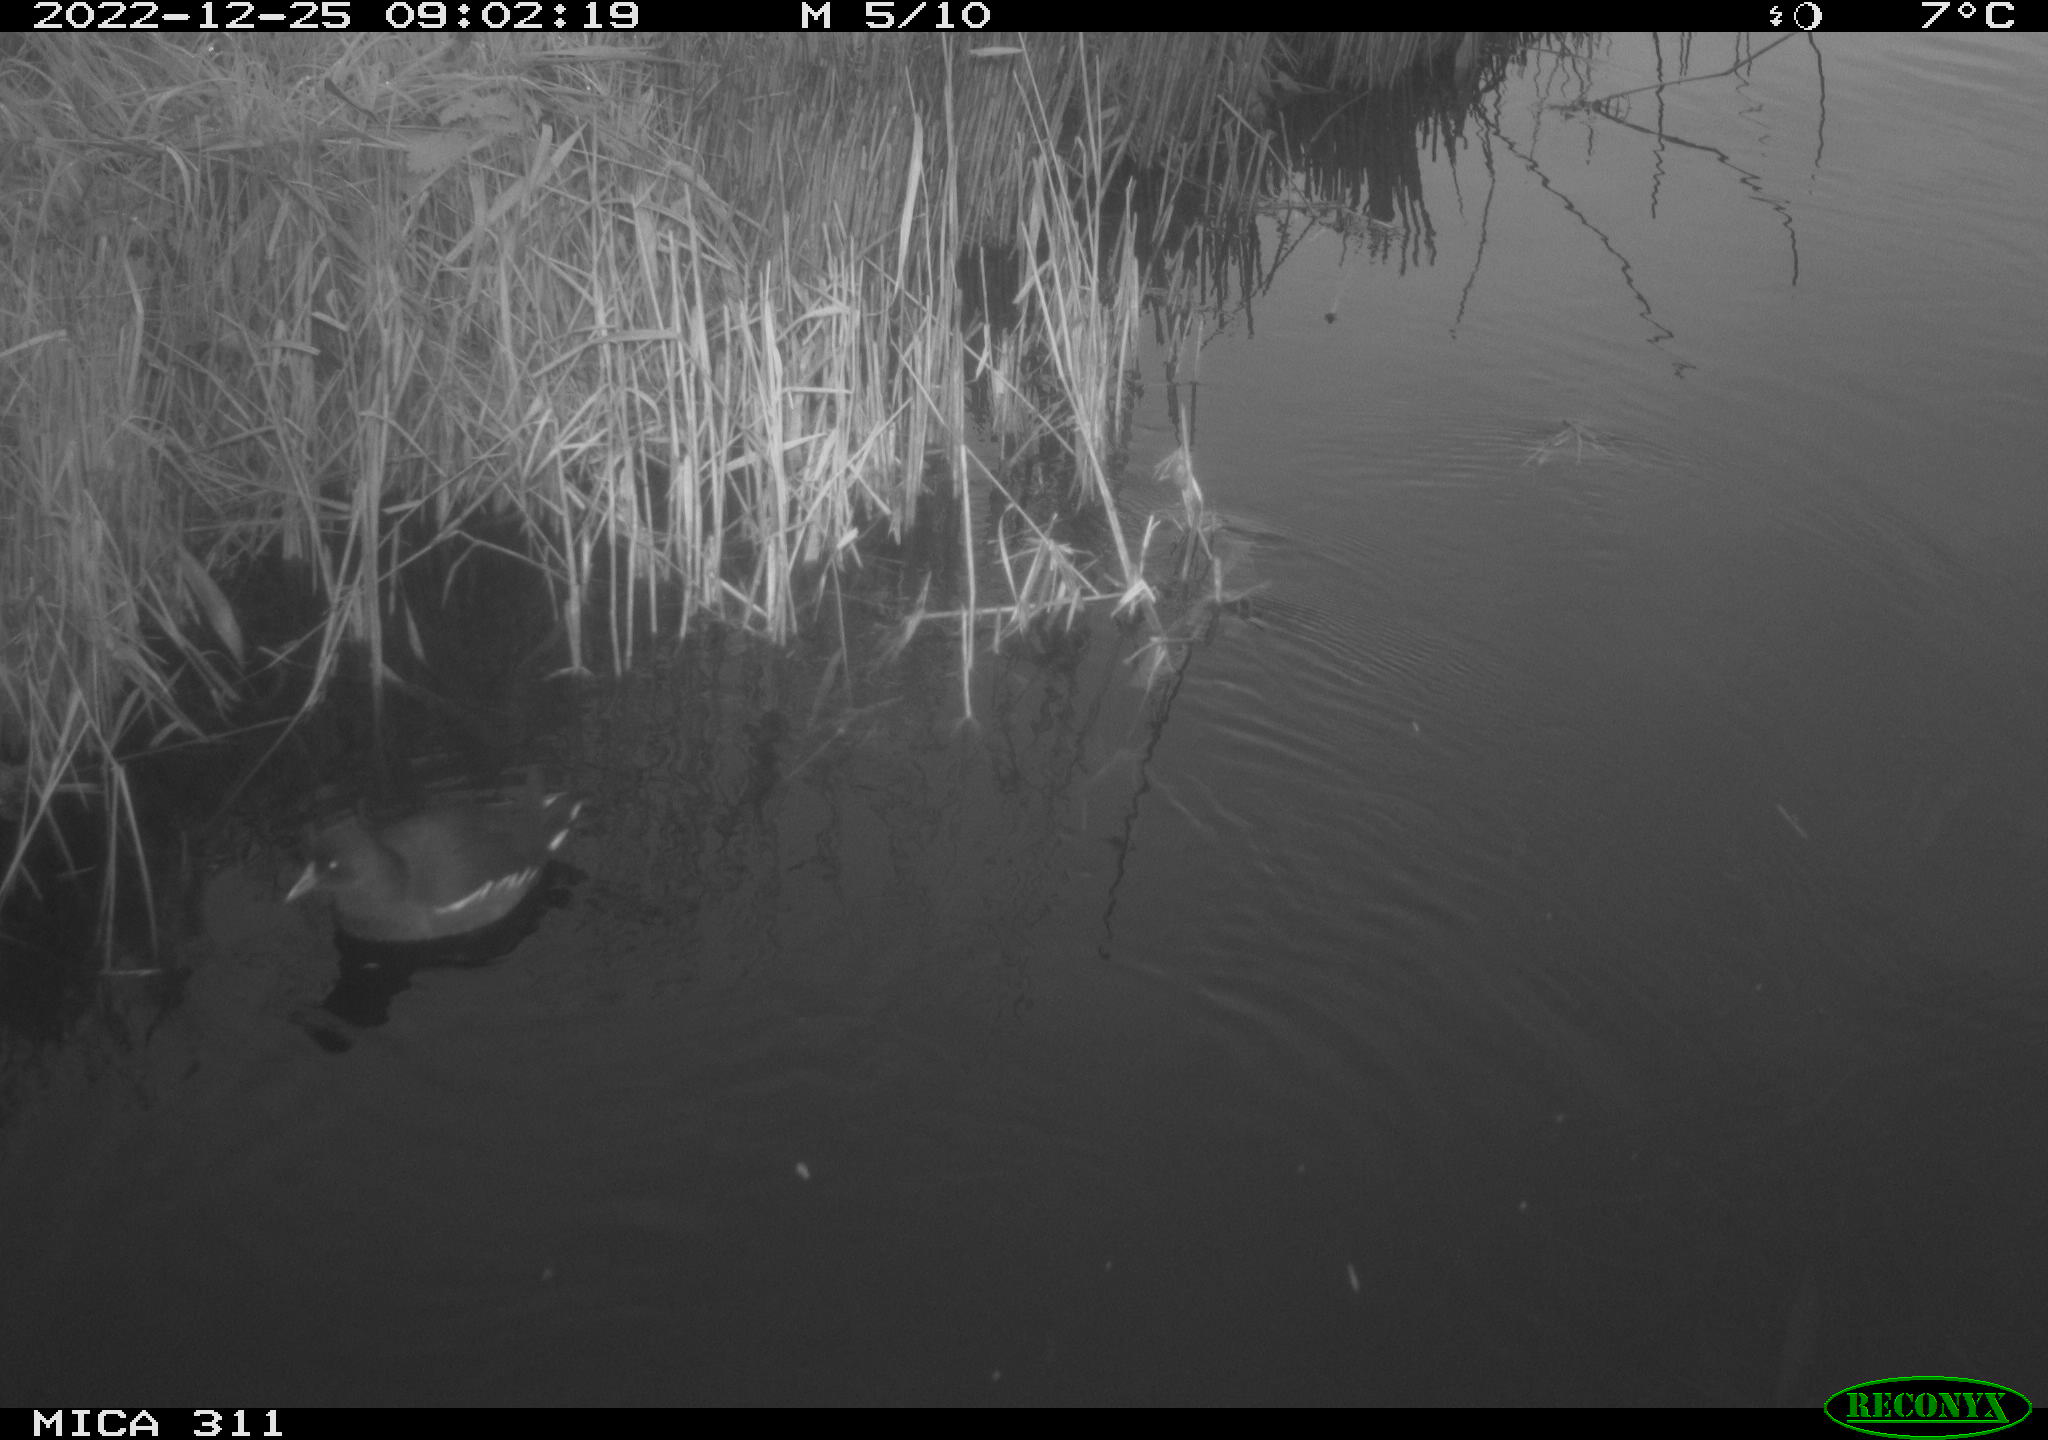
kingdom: Animalia
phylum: Chordata
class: Aves
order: Gruiformes
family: Rallidae
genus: Gallinula
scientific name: Gallinula chloropus
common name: Common moorhen
